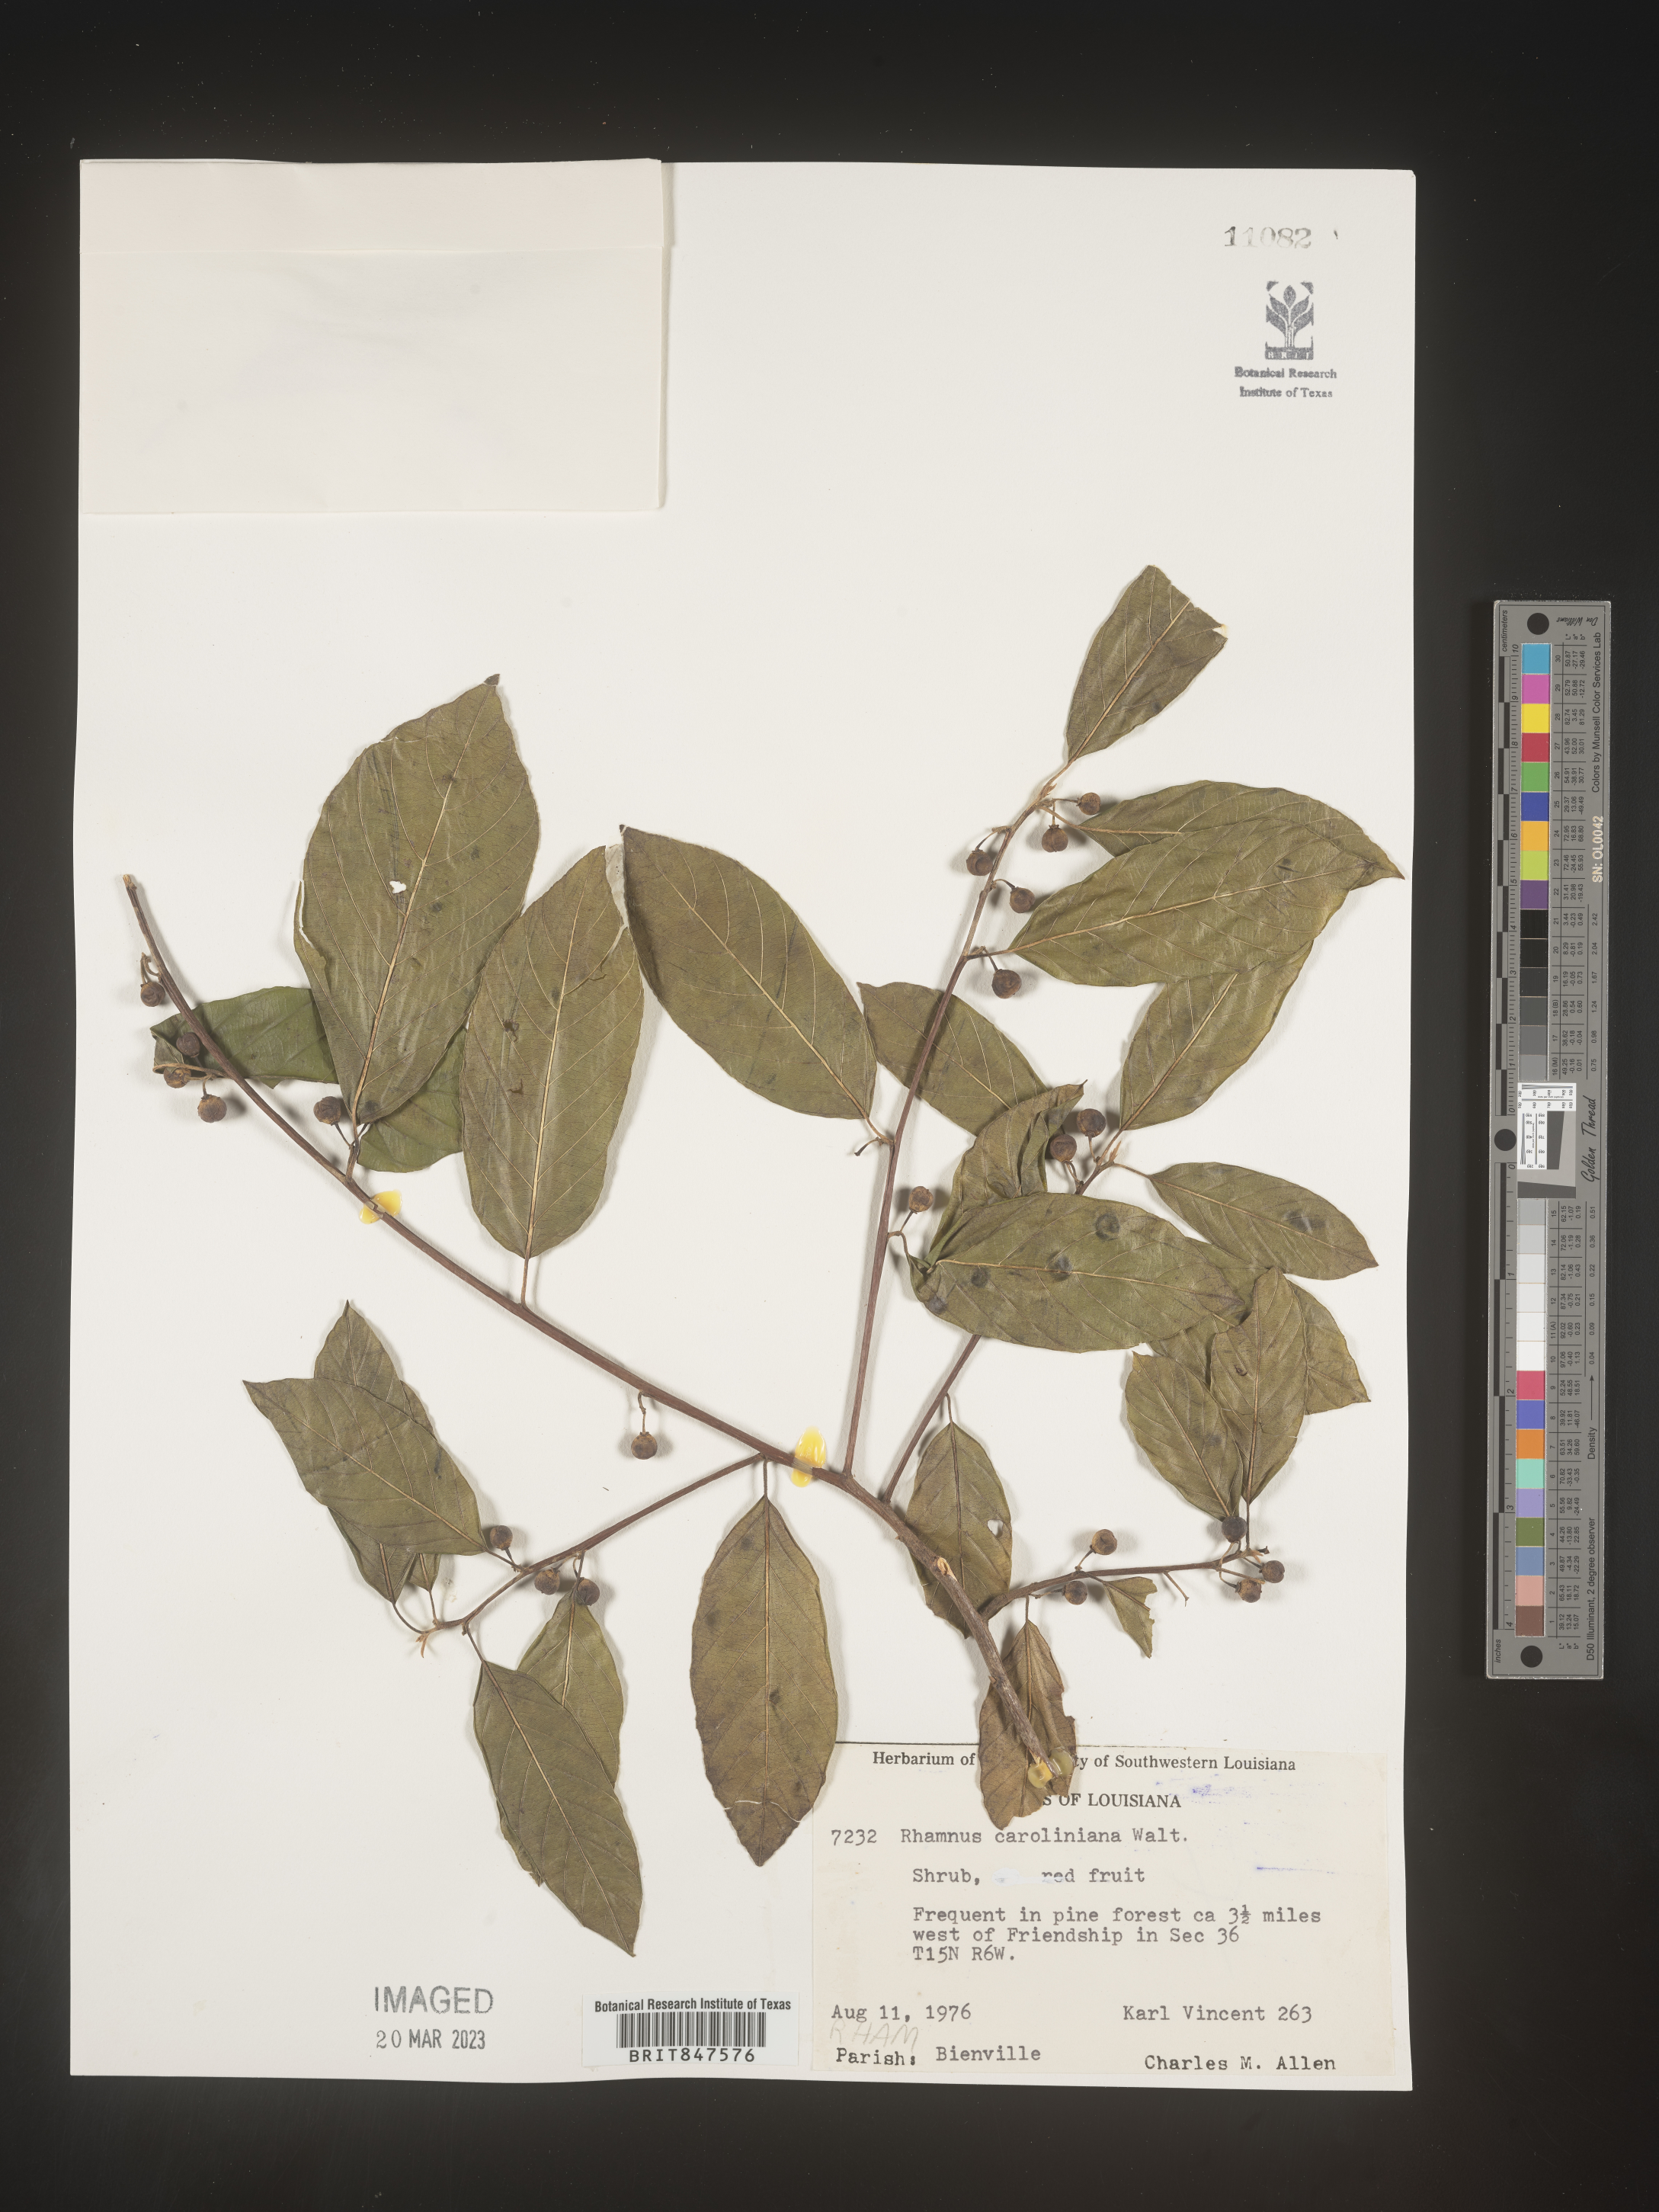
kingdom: Plantae
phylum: Tracheophyta
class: Magnoliopsida
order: Rosales
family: Rhamnaceae
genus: Frangula
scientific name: Frangula caroliniana
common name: Carolina buckthorn
